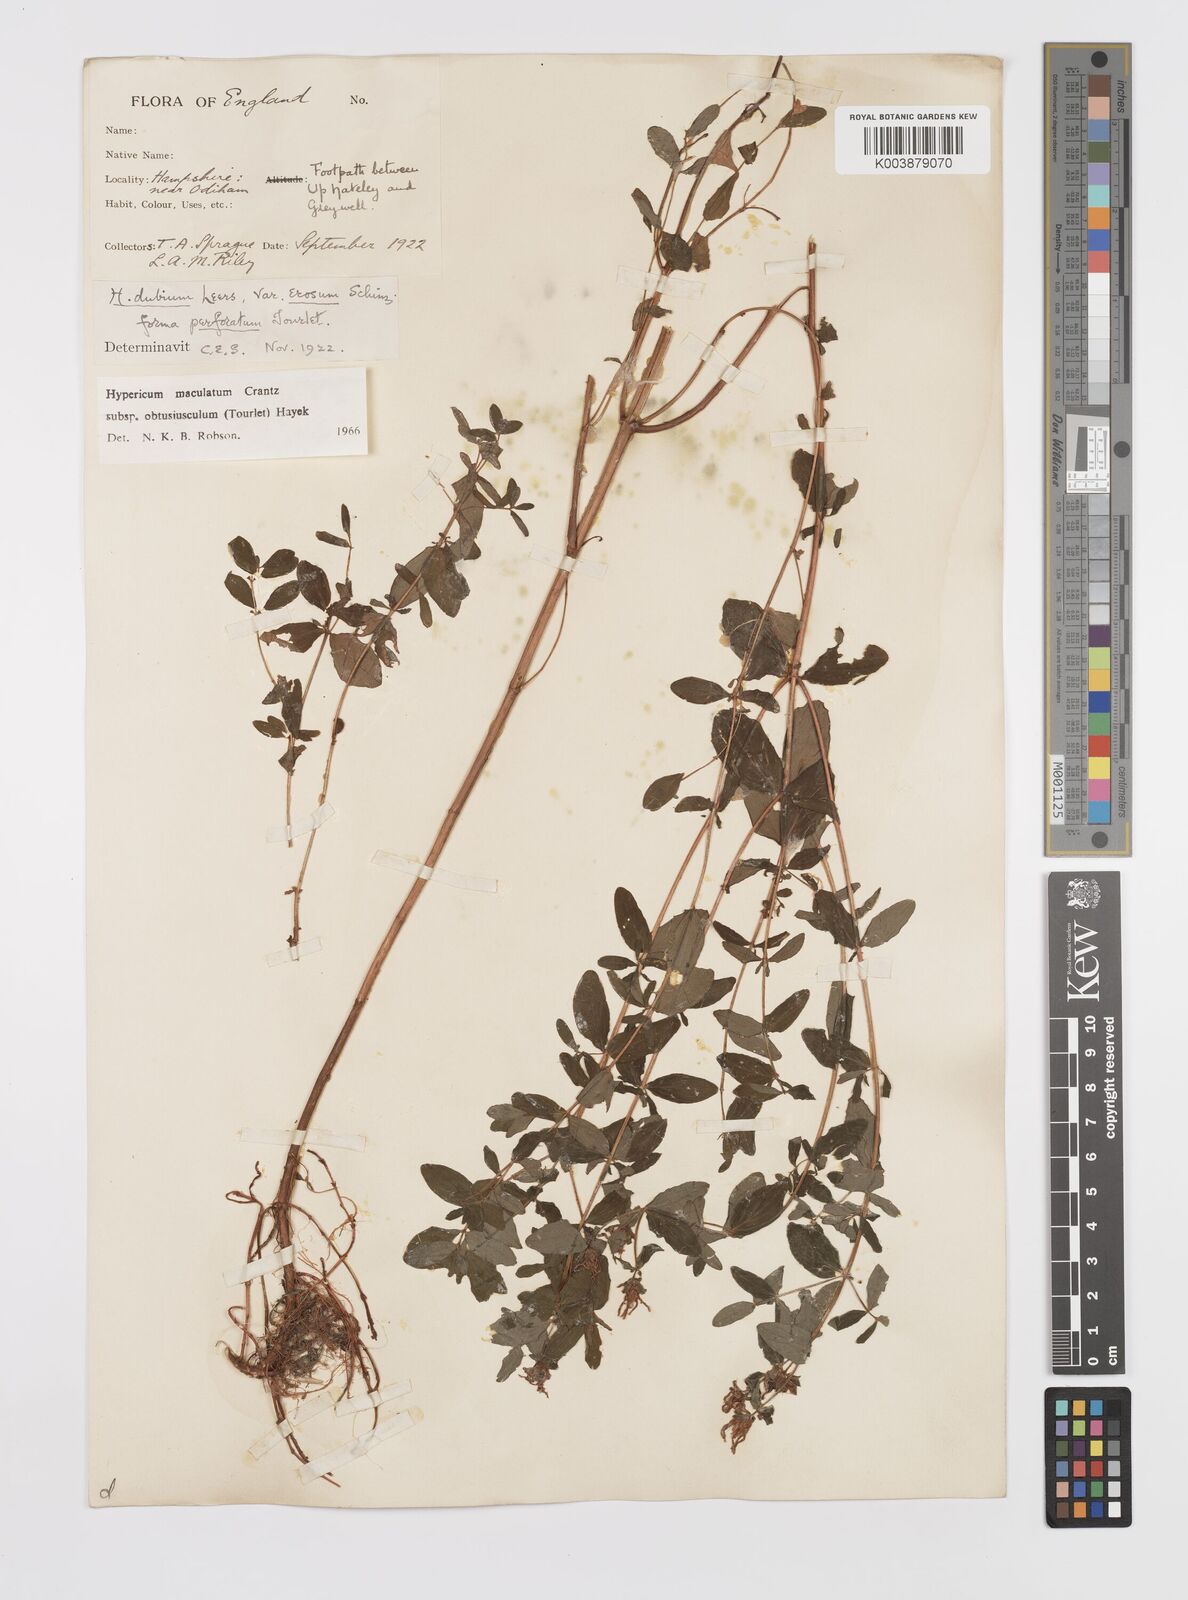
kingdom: Plantae
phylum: Tracheophyta
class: Magnoliopsida
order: Malpighiales
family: Hypericaceae
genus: Hypericum
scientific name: Hypericum dubium
